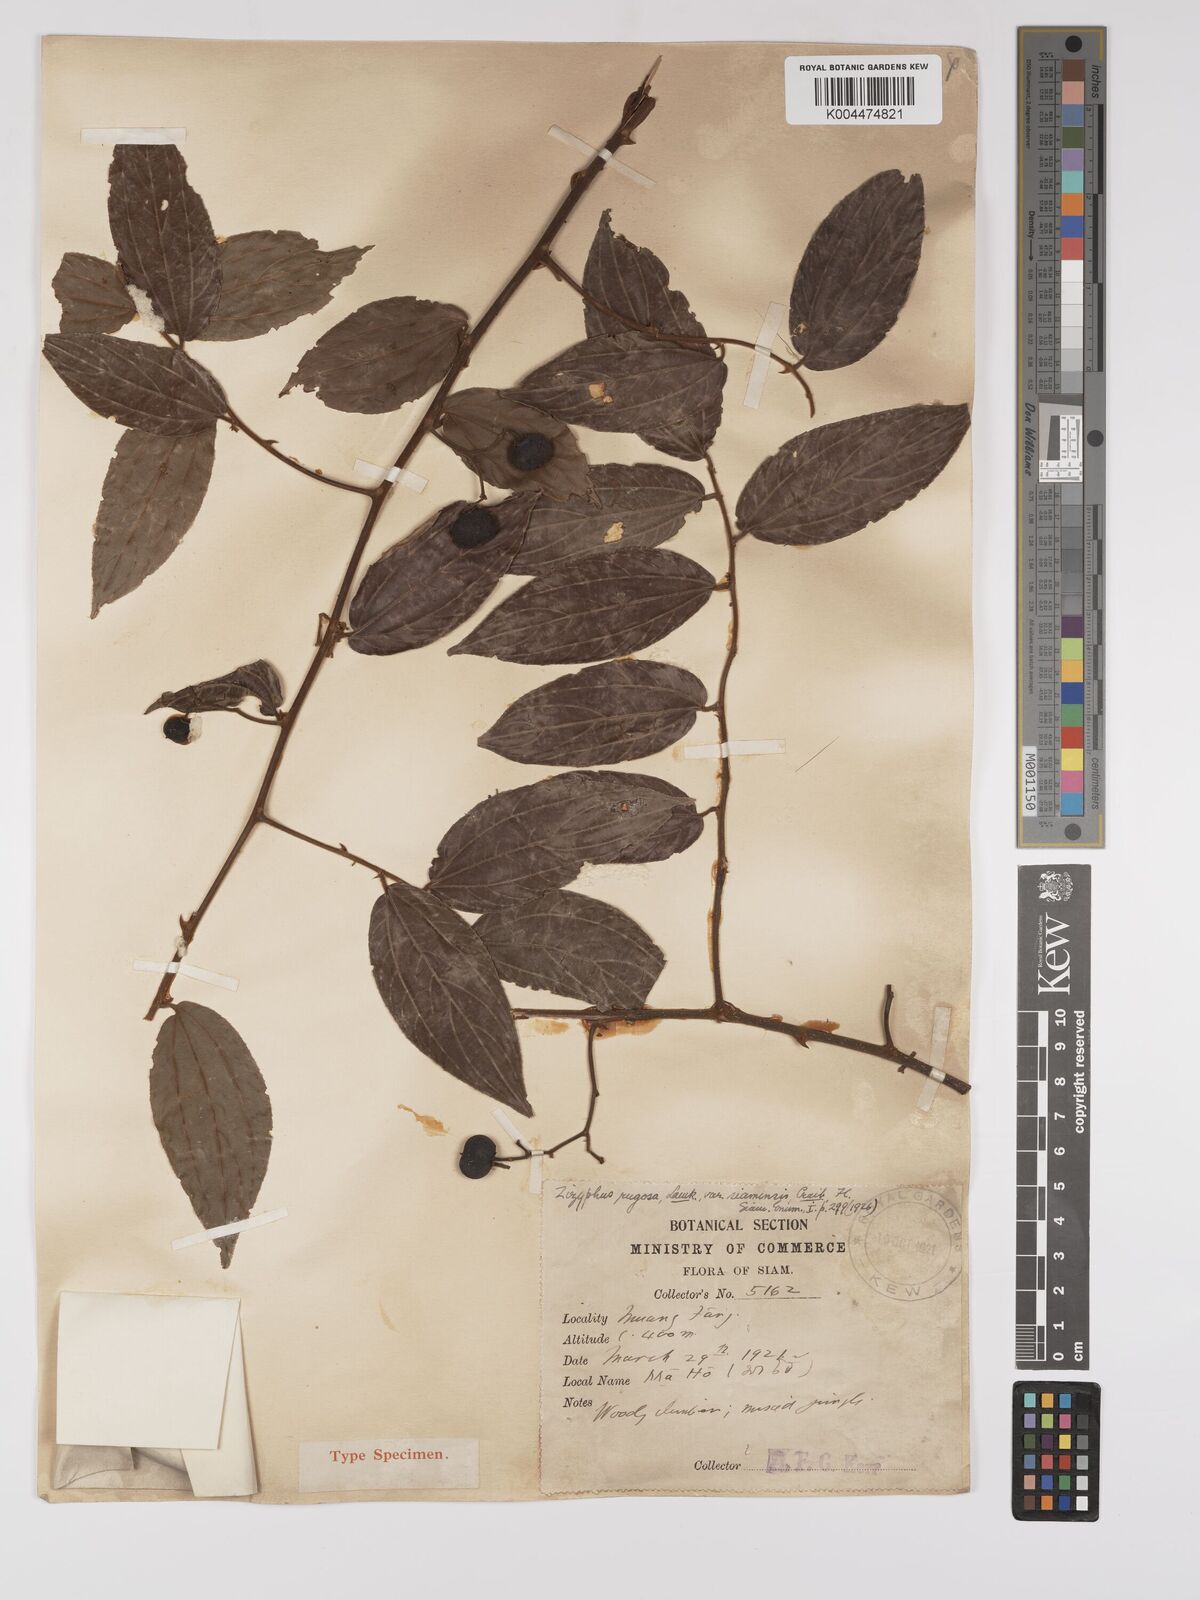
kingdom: Plantae
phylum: Tracheophyta
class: Magnoliopsida
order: Rosales
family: Rhamnaceae
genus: Ziziphus
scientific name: Ziziphus rugosa
